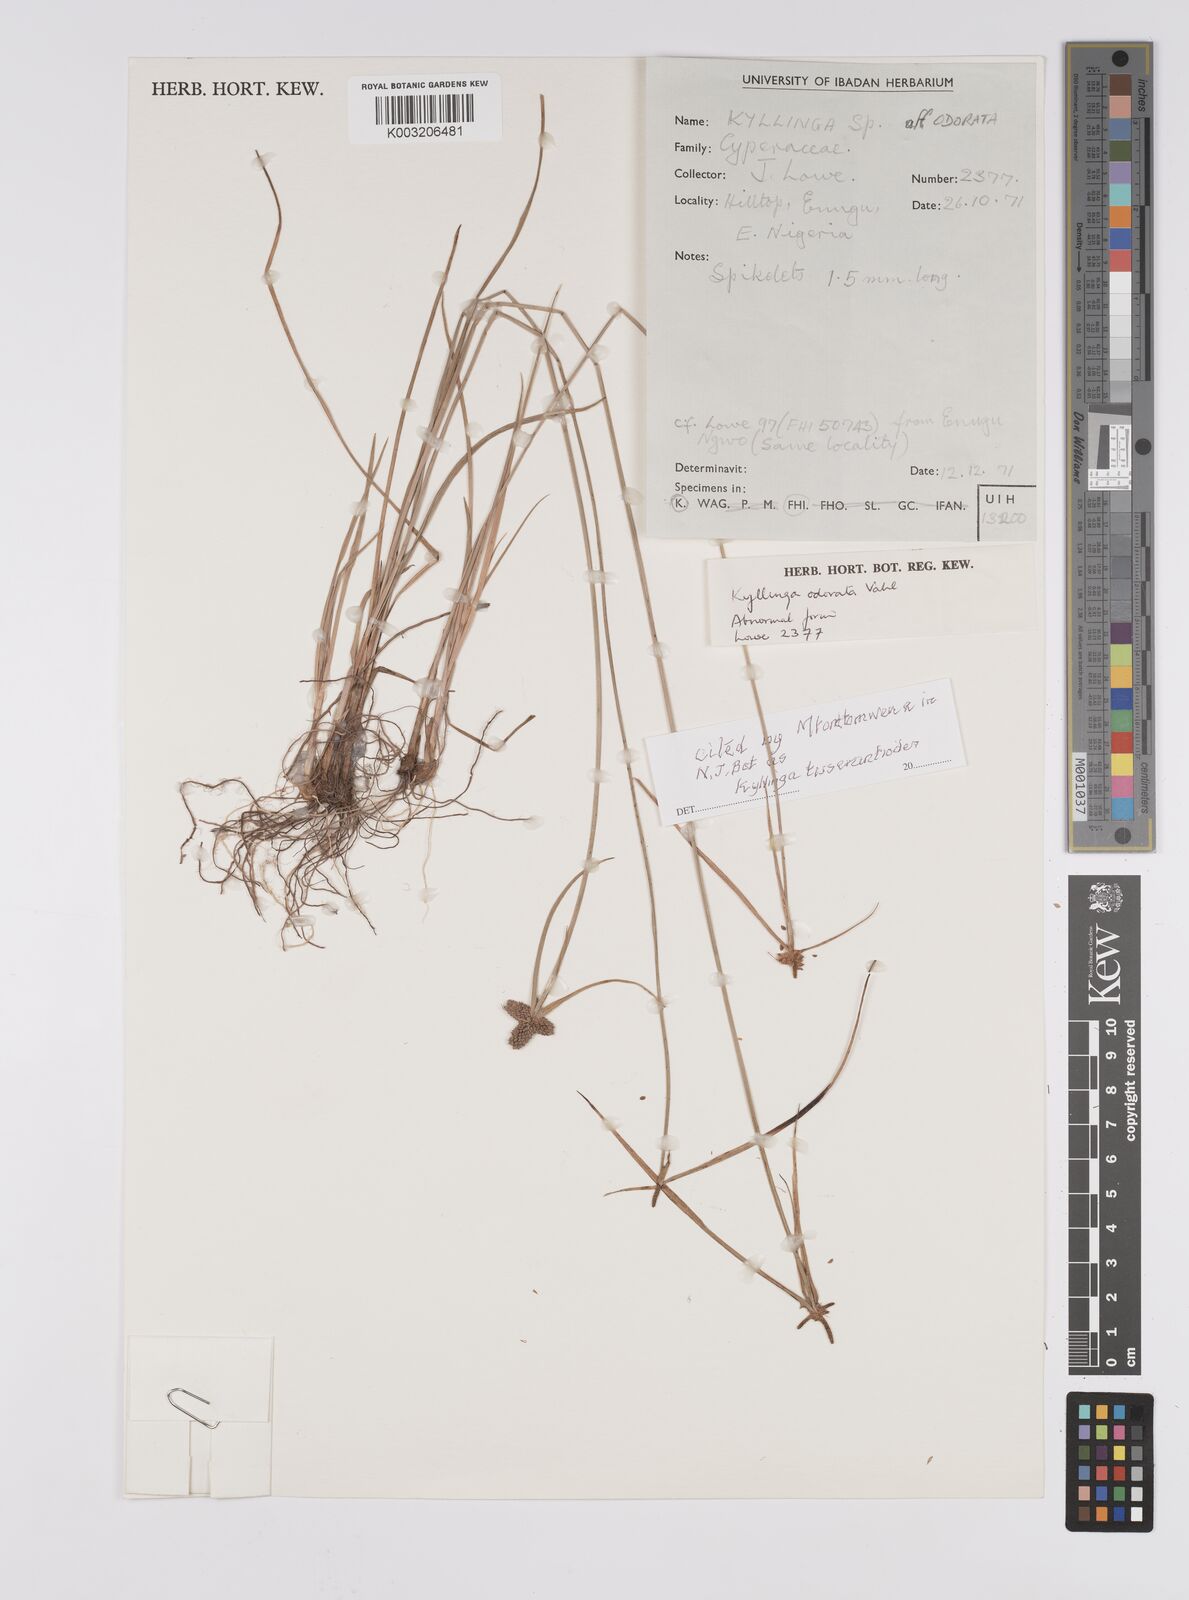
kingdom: Plantae
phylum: Tracheophyta
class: Liliopsida
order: Poales
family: Cyperaceae
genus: Cyperus
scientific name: Cyperus
